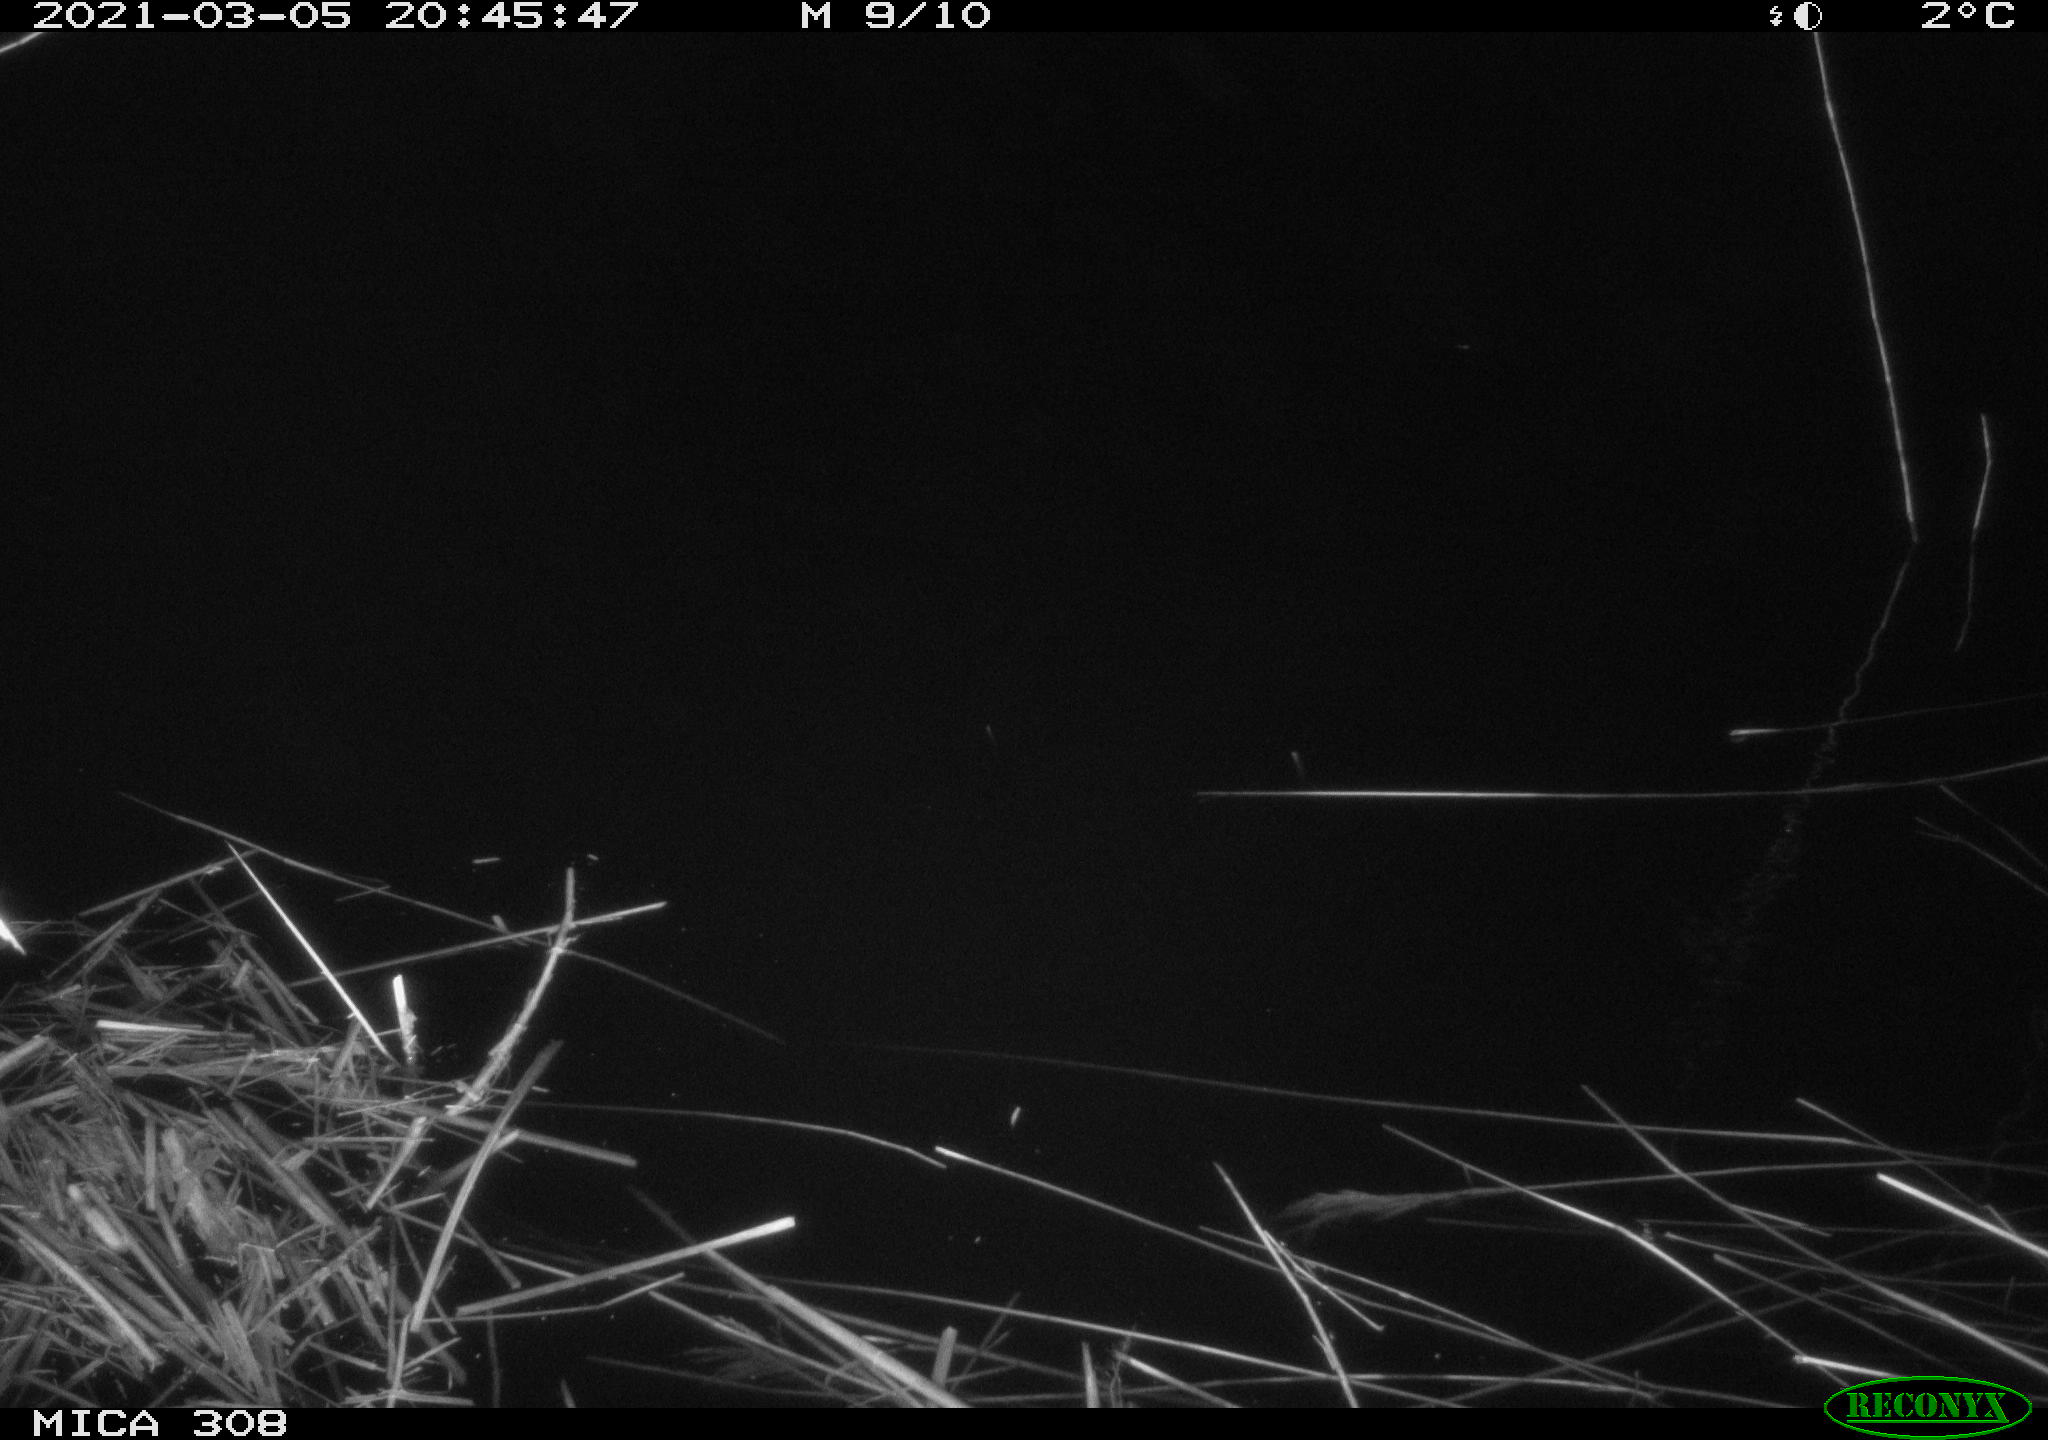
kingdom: Animalia
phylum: Chordata
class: Mammalia
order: Rodentia
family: Muridae
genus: Rattus
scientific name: Rattus norvegicus
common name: Brown rat
